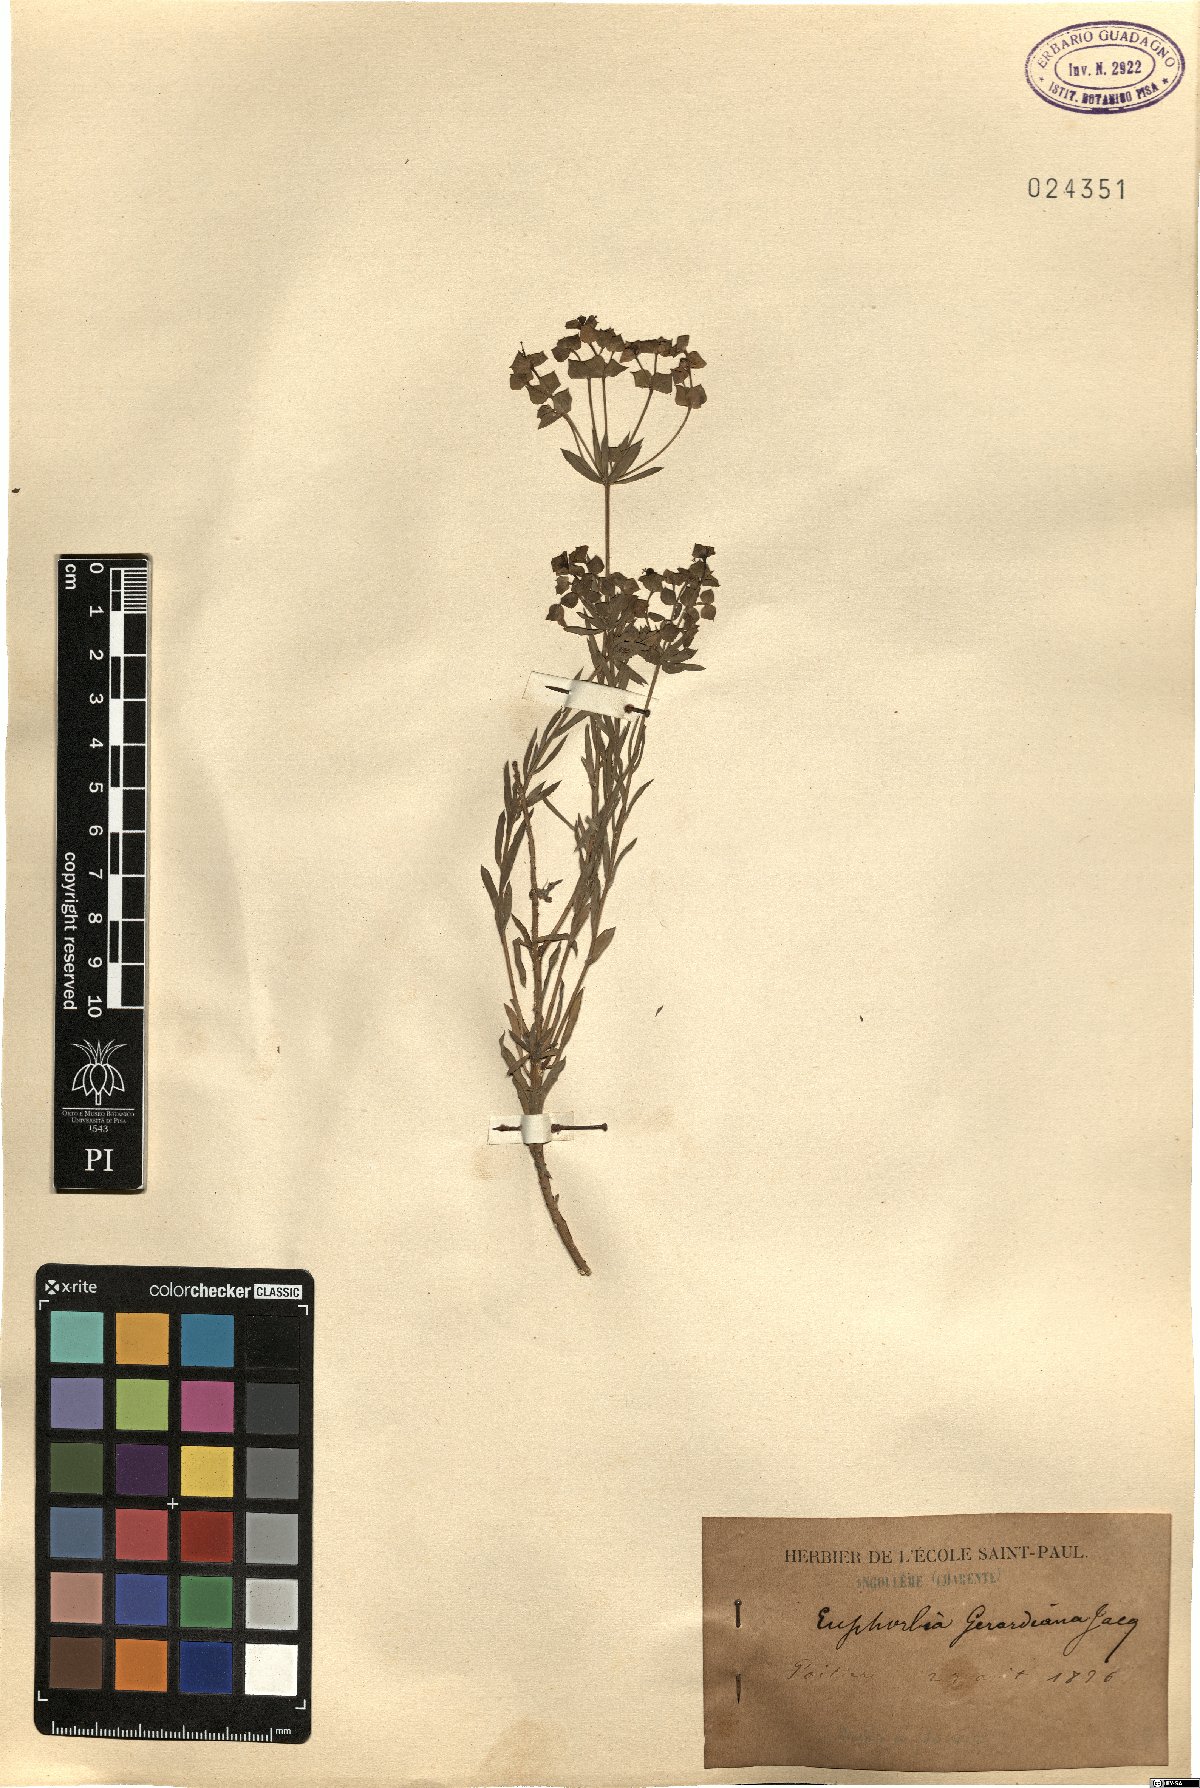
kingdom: Plantae
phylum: Tracheophyta
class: Magnoliopsida
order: Malpighiales
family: Euphorbiaceae
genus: Euphorbia
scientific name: Euphorbia seguieriana
